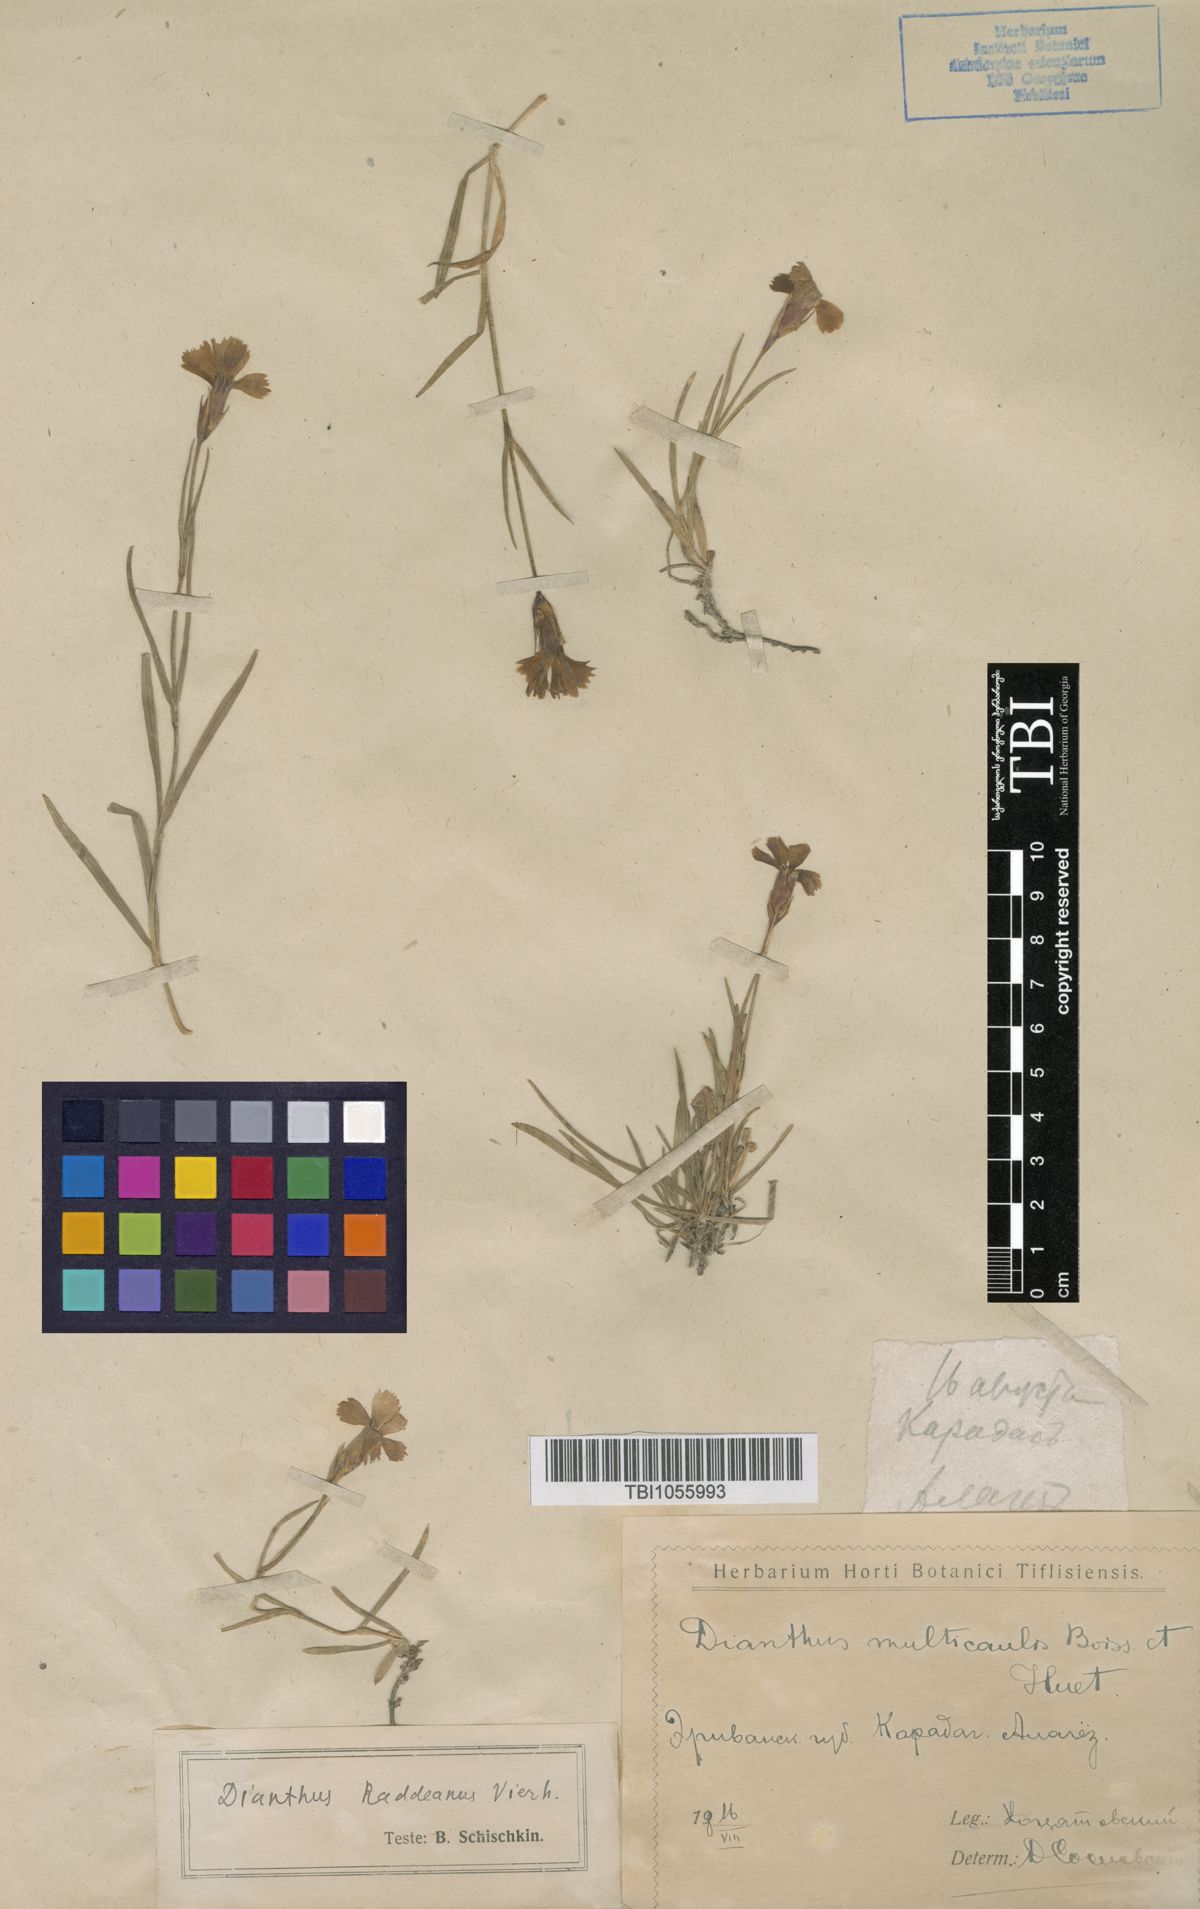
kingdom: Plantae
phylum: Tracheophyta
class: Magnoliopsida
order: Caryophyllales
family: Caryophyllaceae
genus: Dianthus
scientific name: Dianthus raddeanus
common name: Radde's pink
